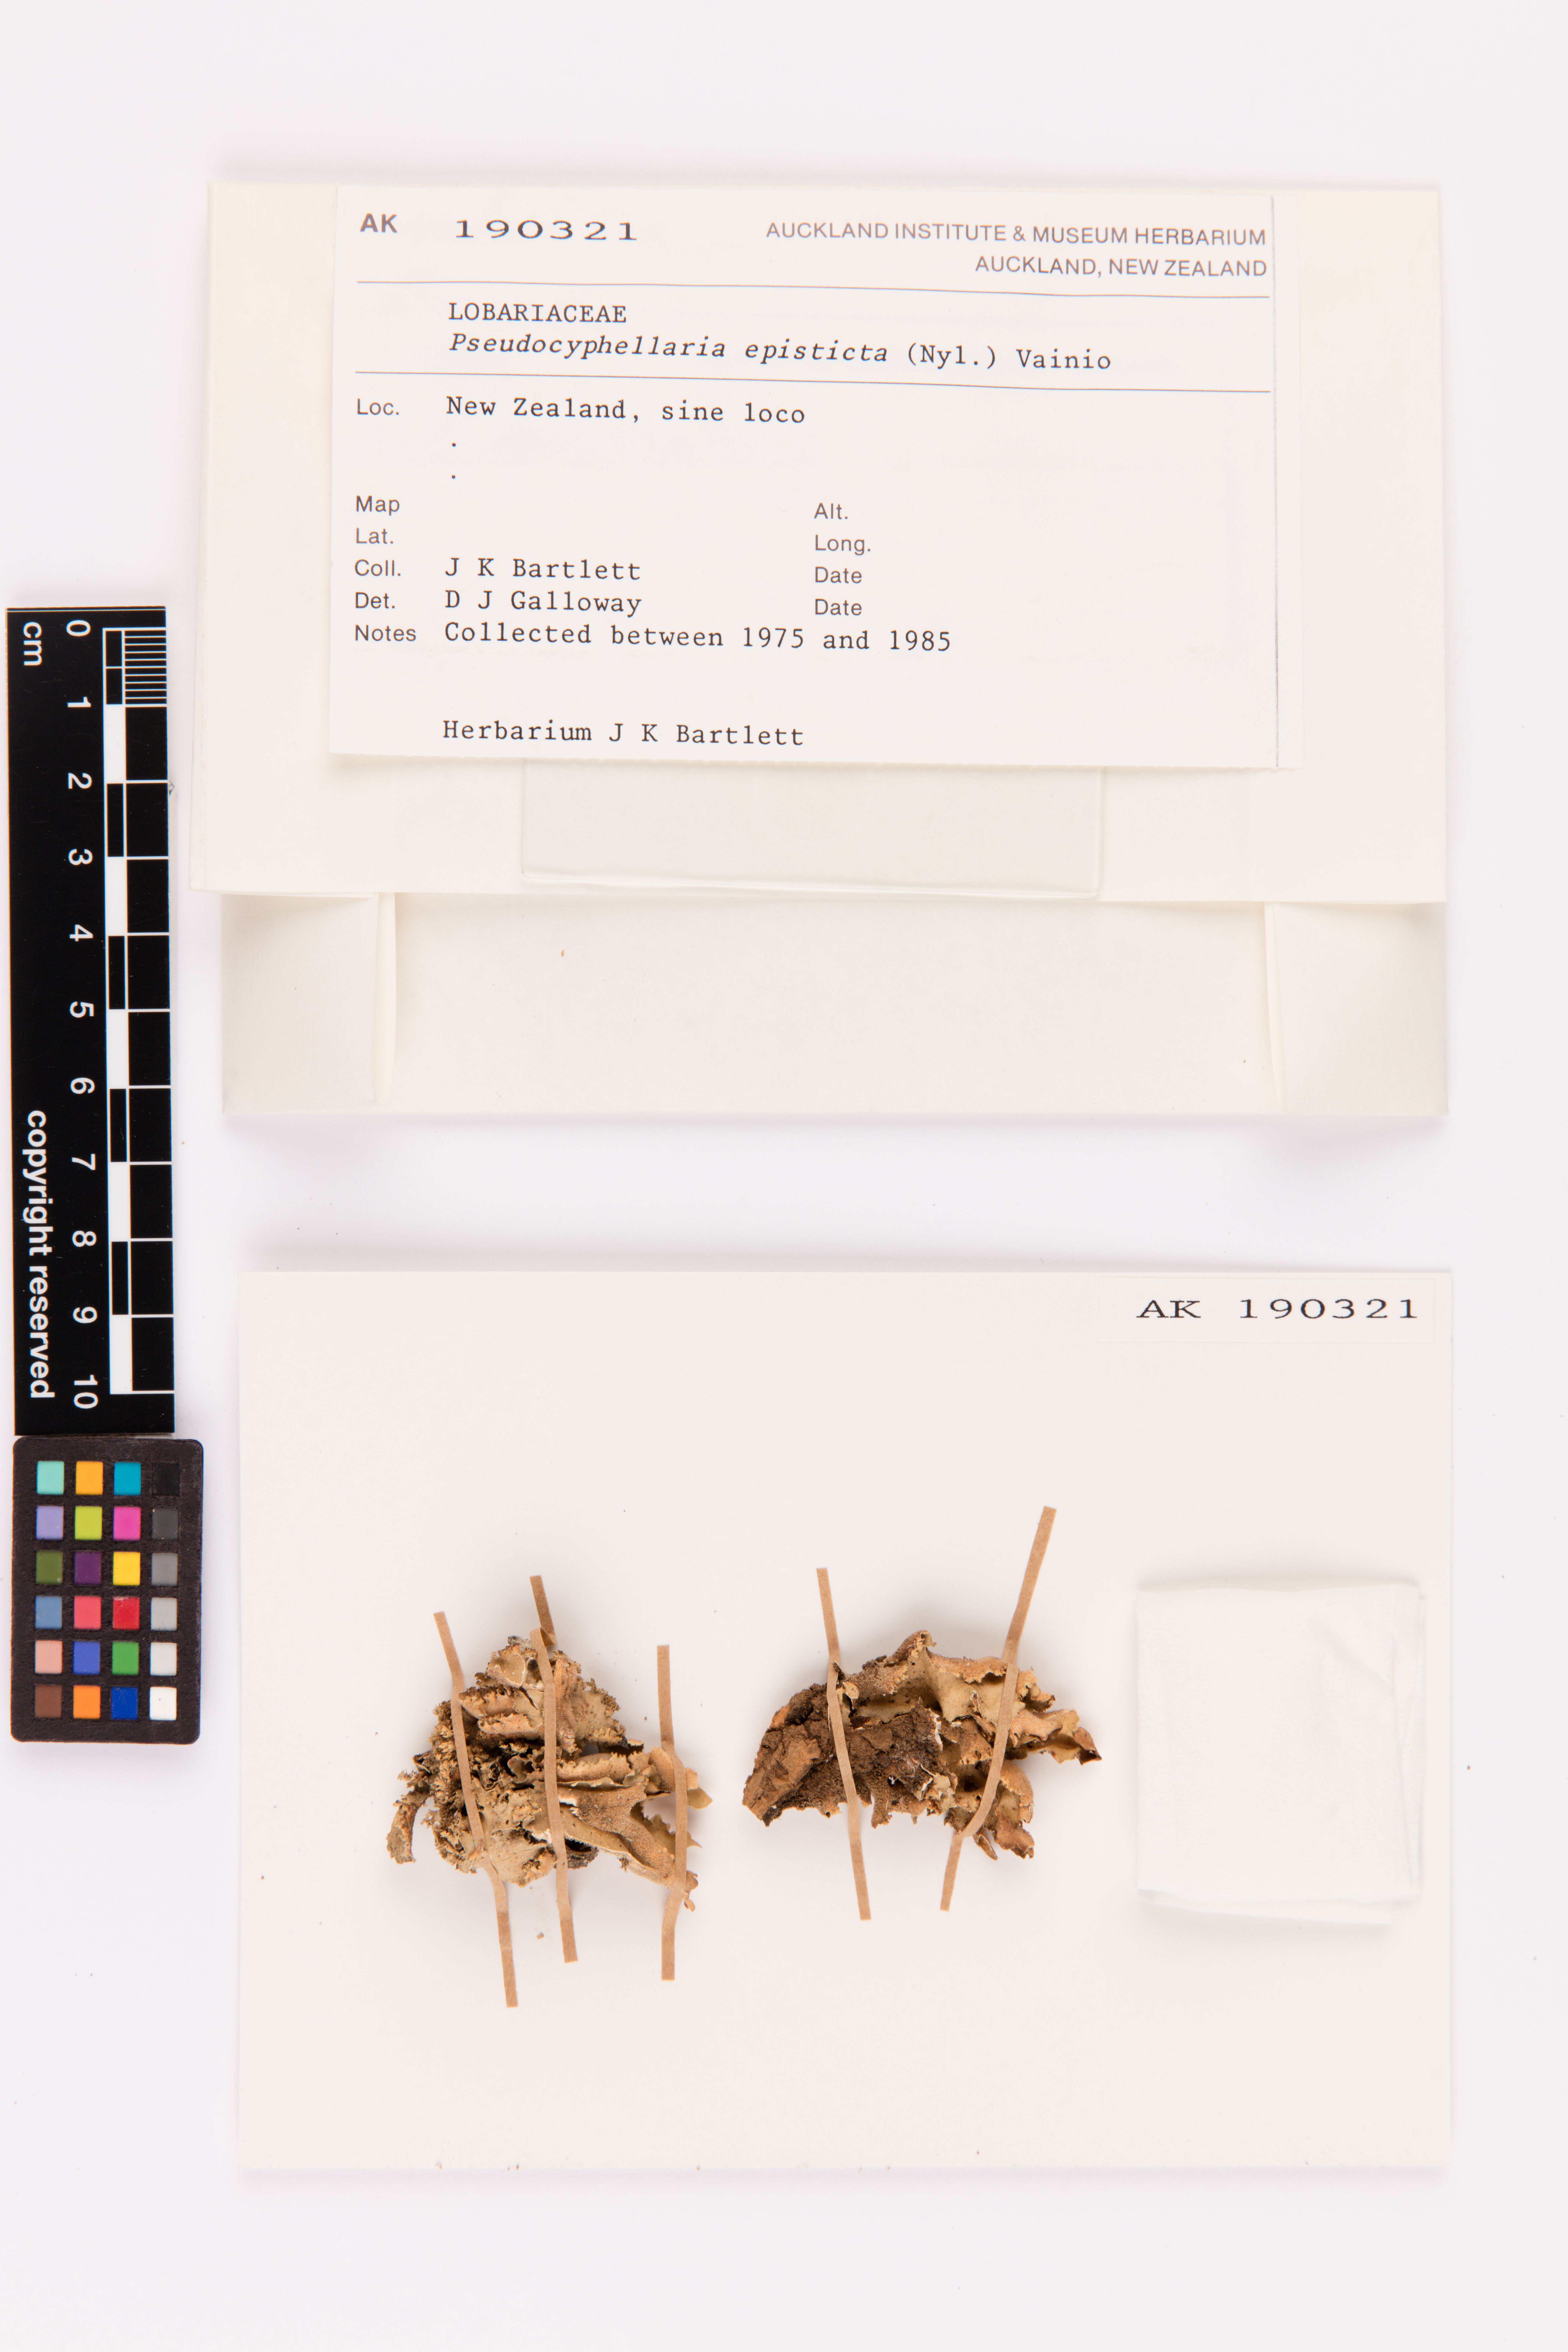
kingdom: Fungi
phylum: Ascomycota
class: Lecanoromycetes
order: Peltigerales
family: Lobariaceae
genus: Pseudocyphellaria
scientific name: Pseudocyphellaria episticta
